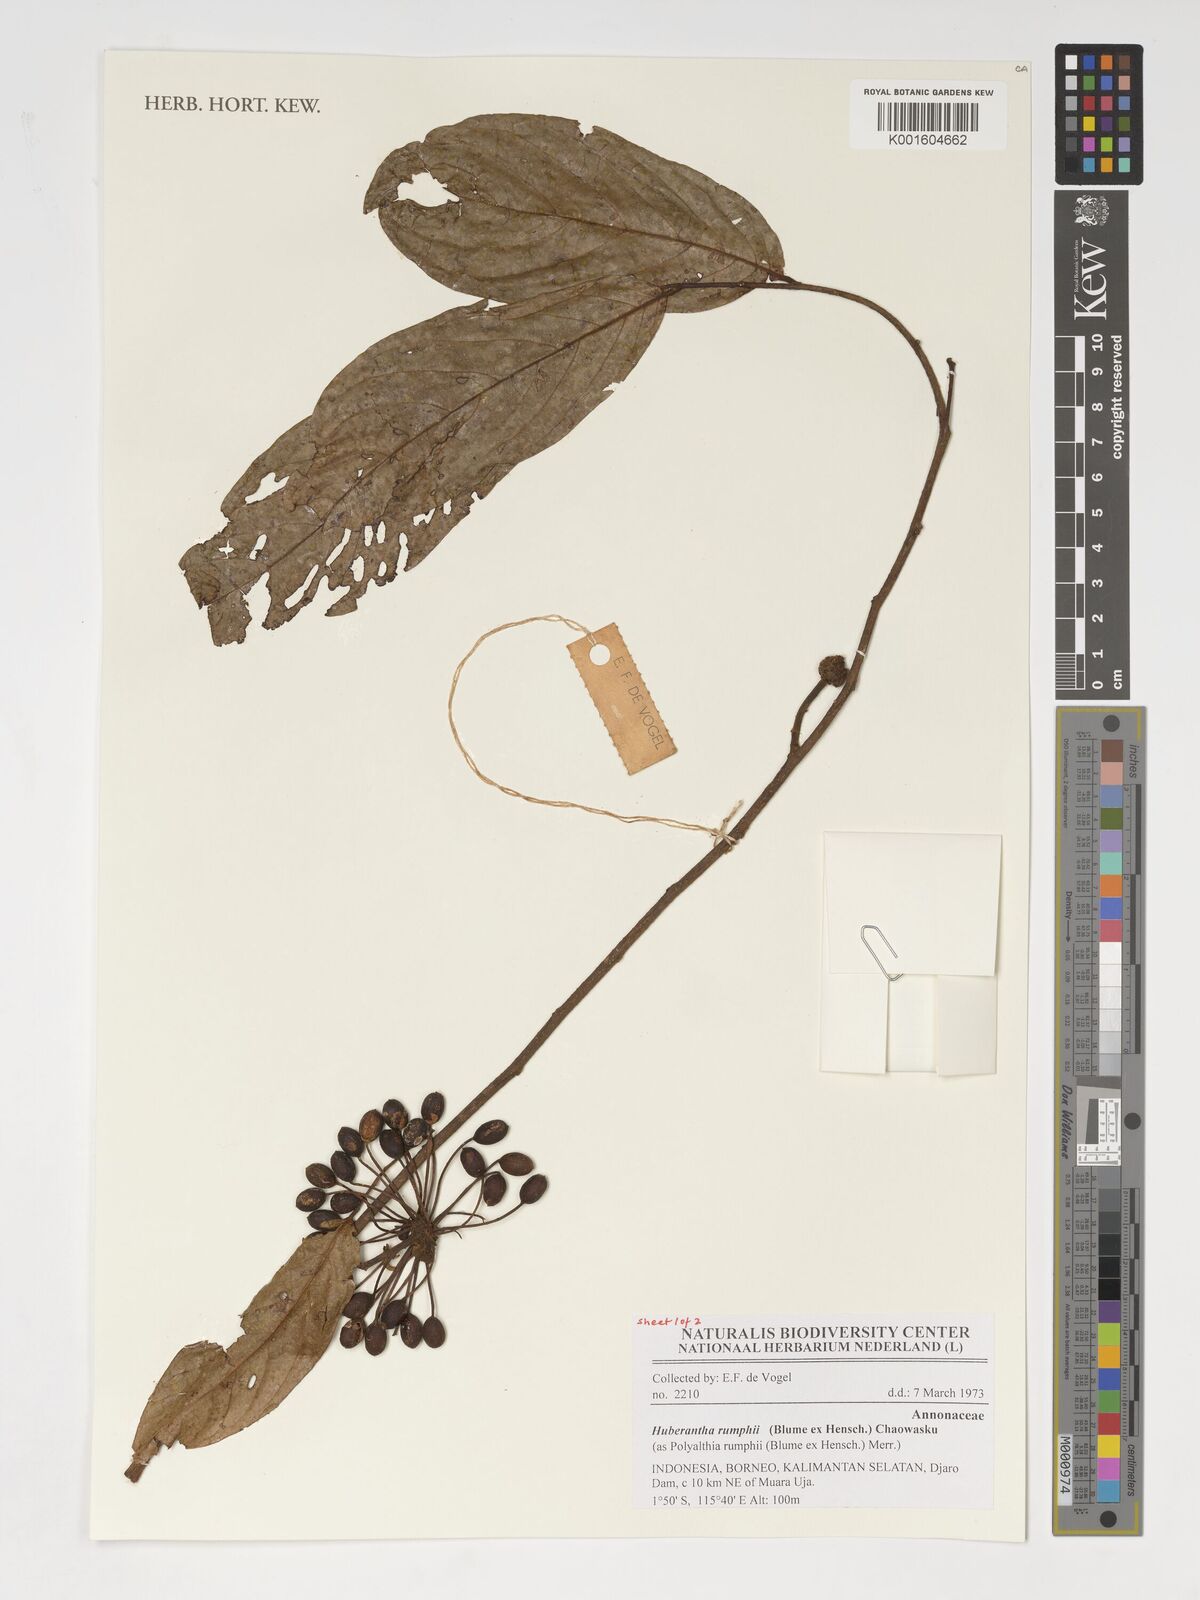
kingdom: Plantae
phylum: Tracheophyta
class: Magnoliopsida
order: Magnoliales
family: Annonaceae
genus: Hubera
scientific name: Hubera rumphii
